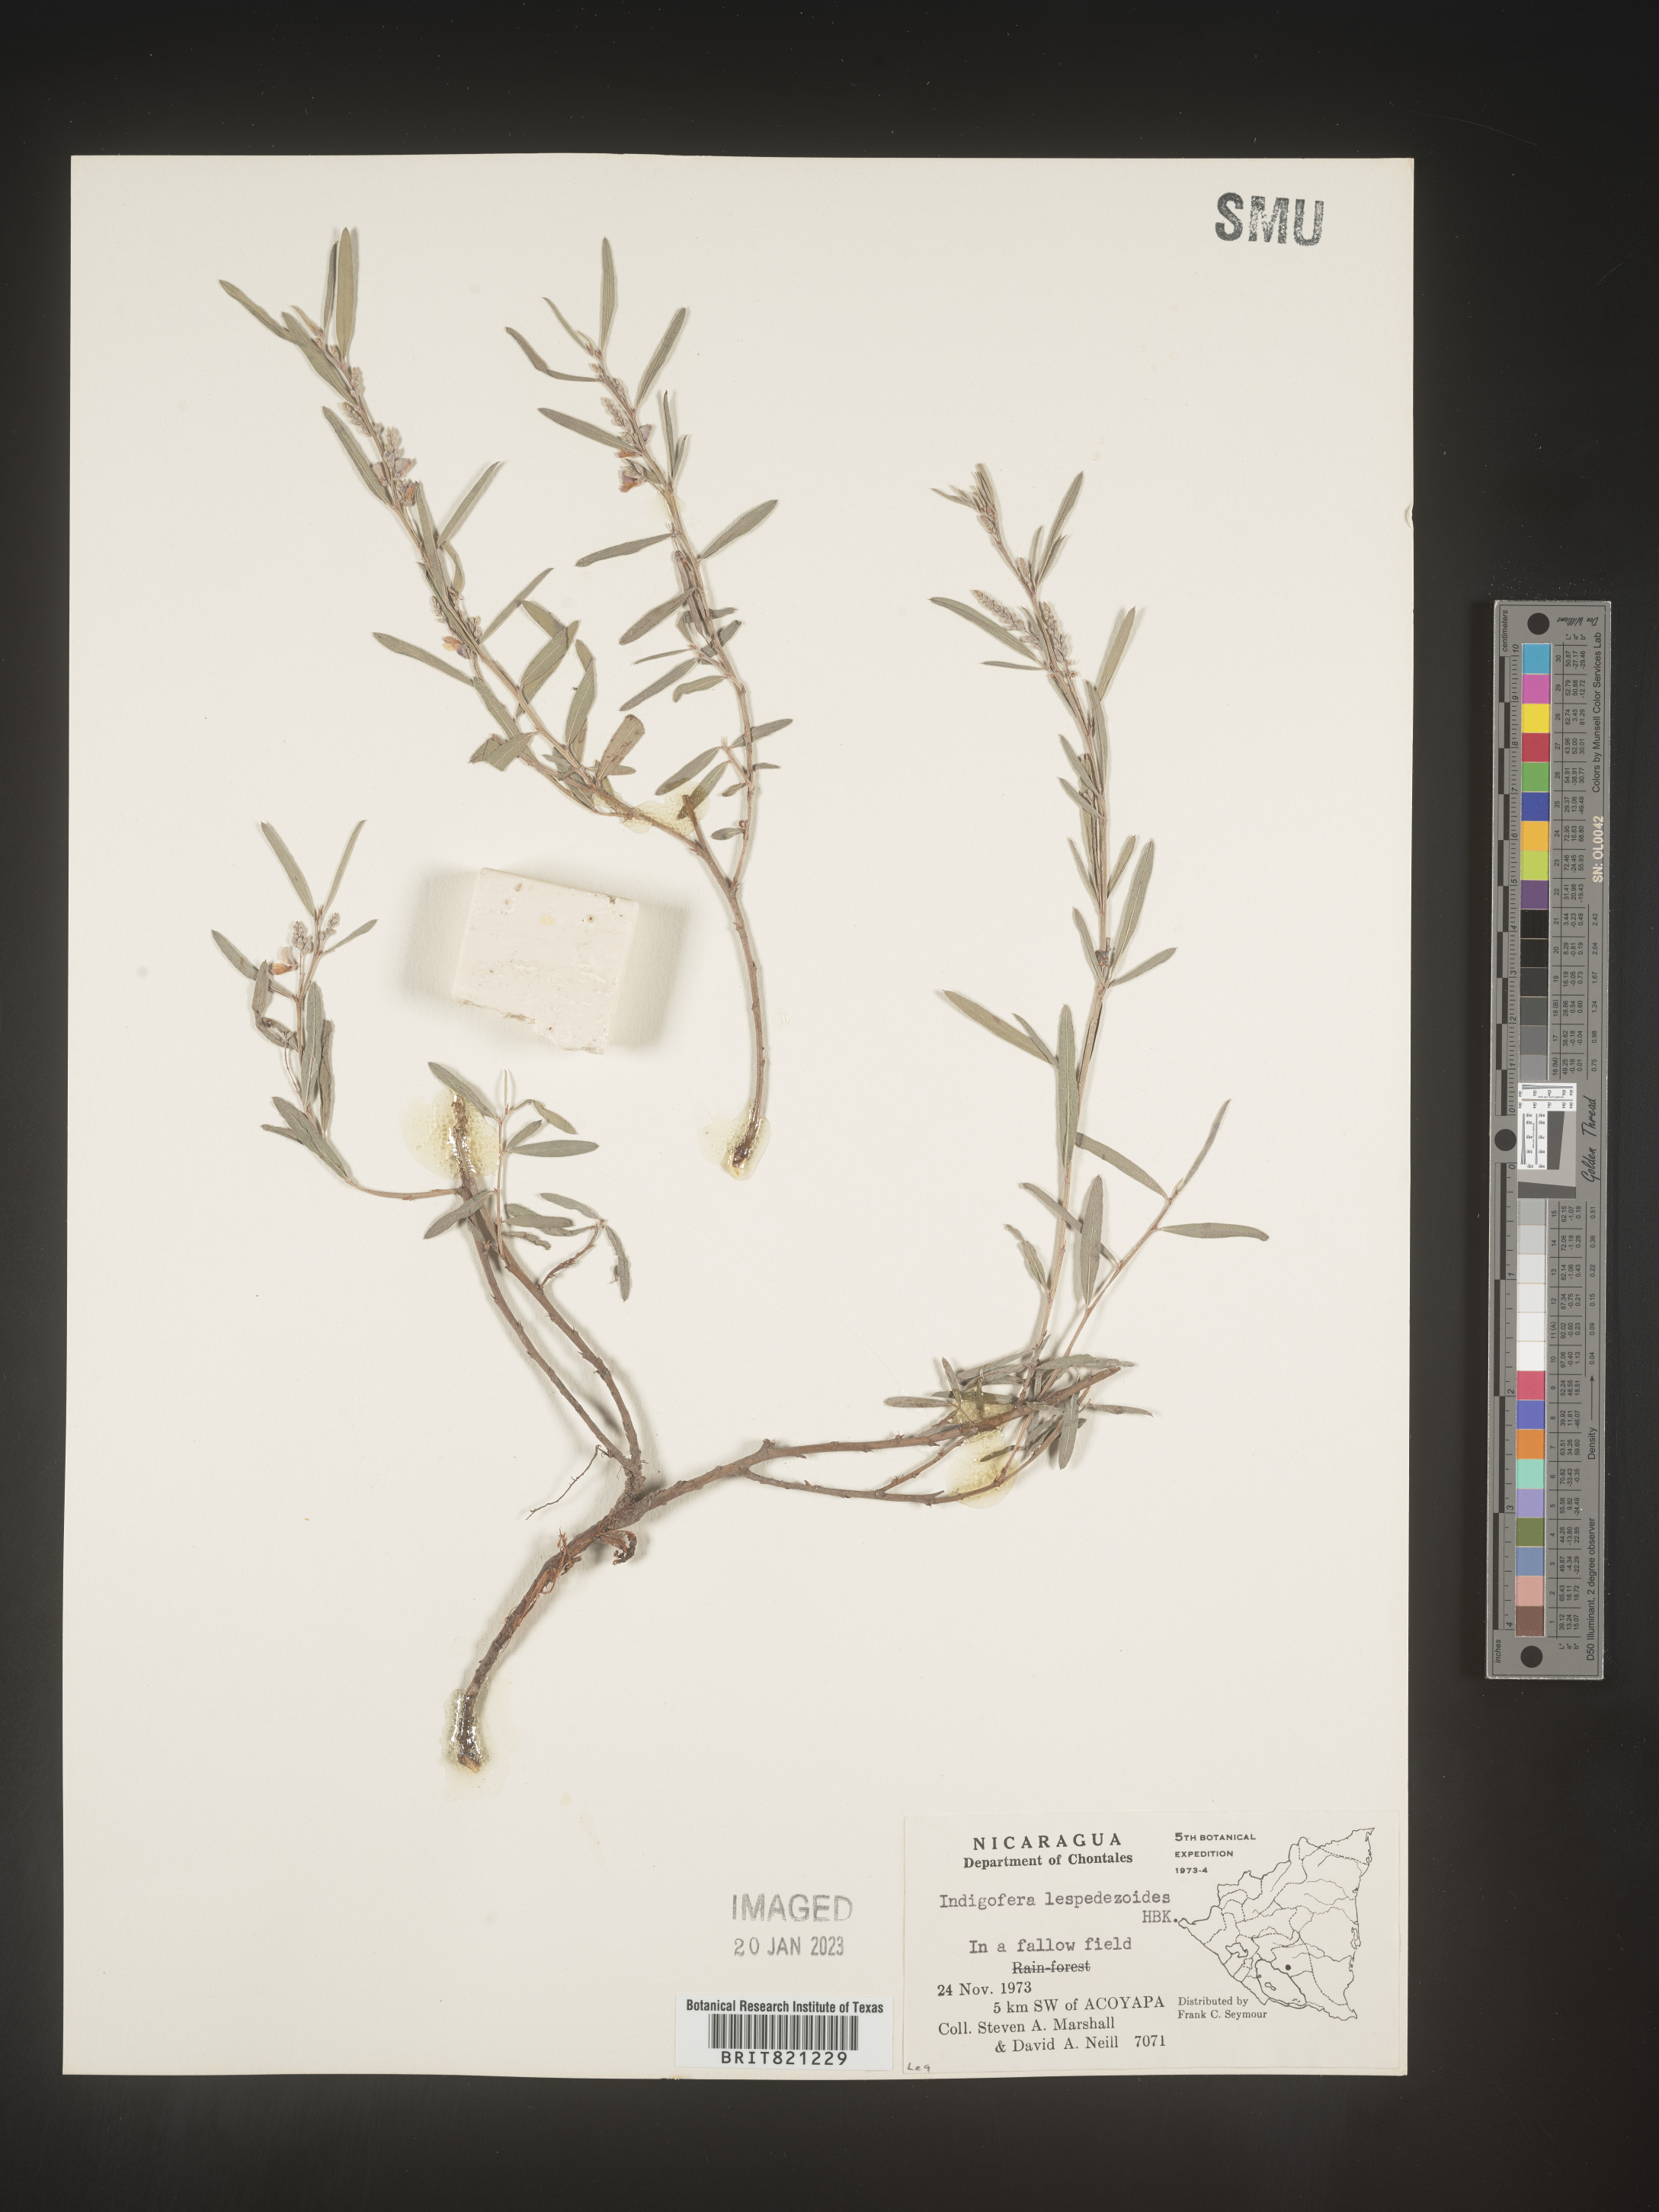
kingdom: Plantae
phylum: Tracheophyta
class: Magnoliopsida
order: Fabales
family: Fabaceae
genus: Indigofera
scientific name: Indigofera
